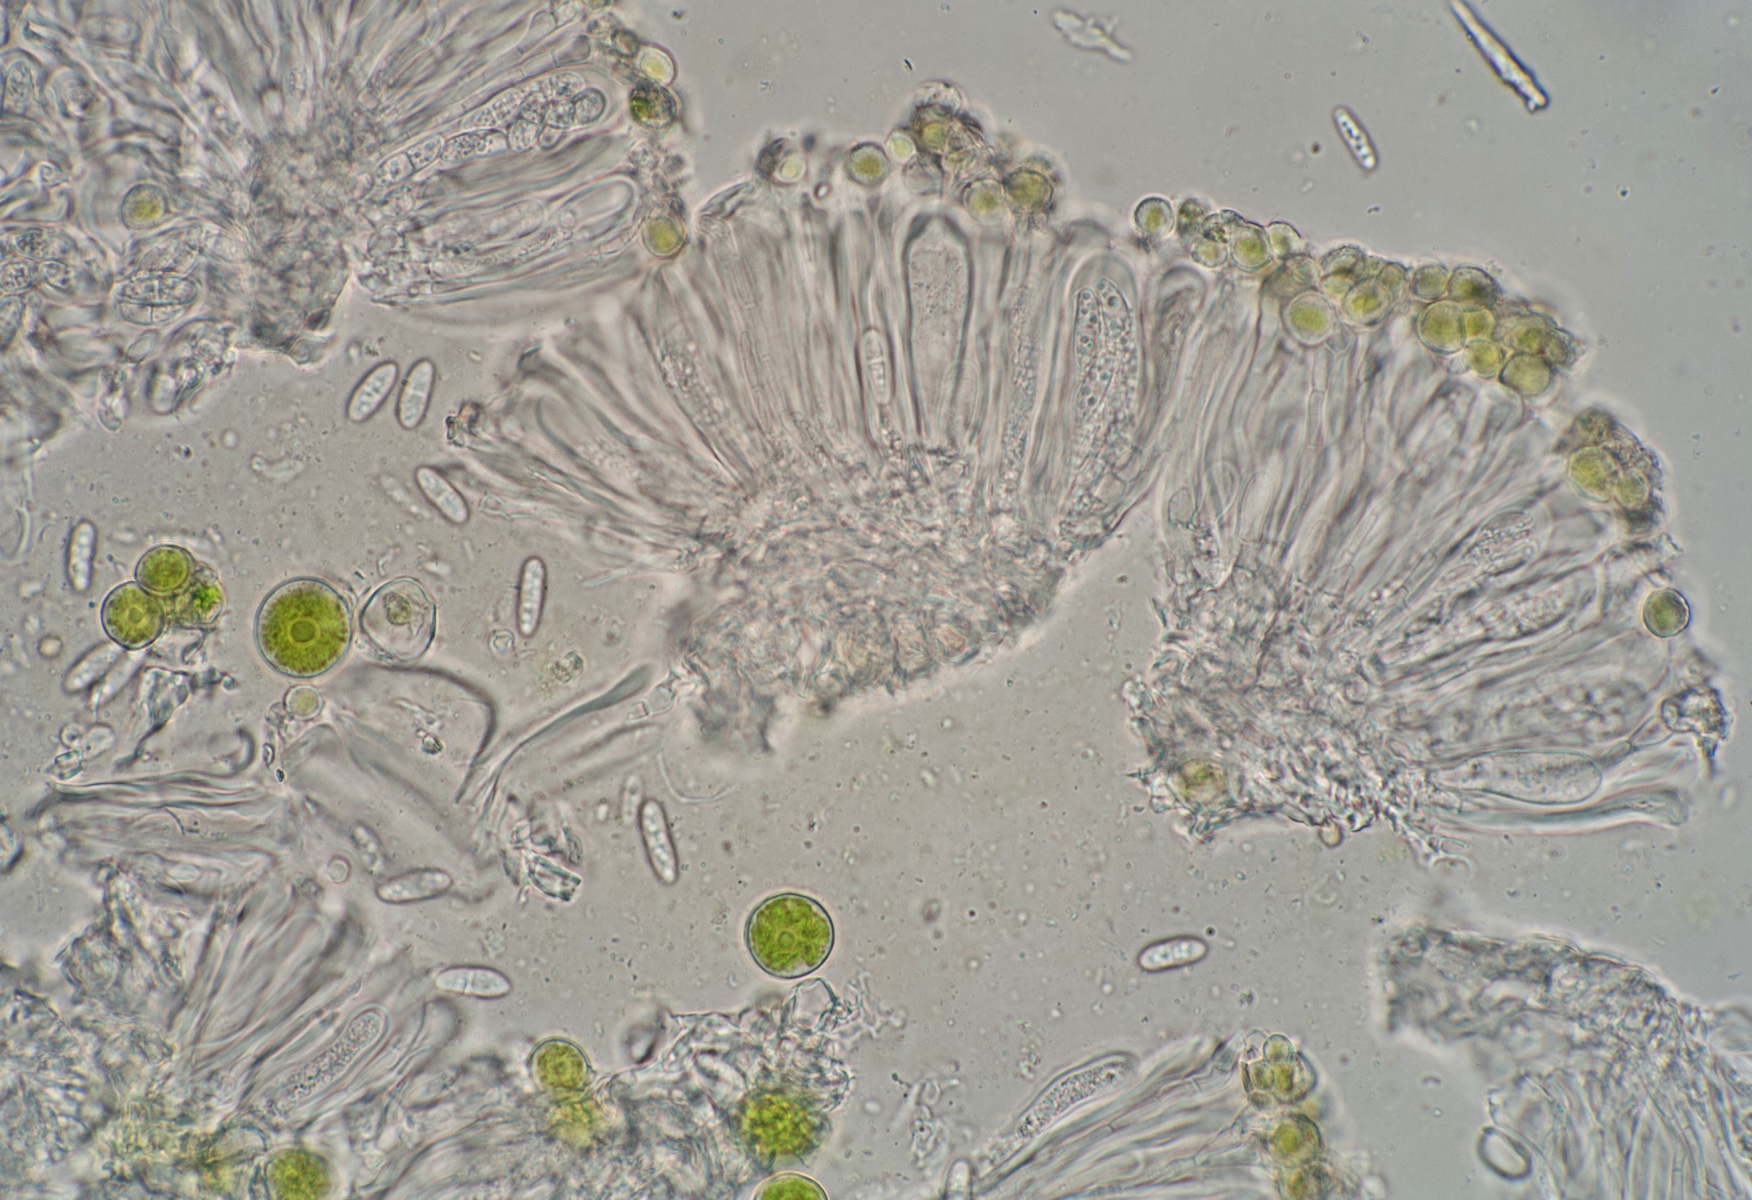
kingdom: Fungi
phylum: Ascomycota
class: Lecanoromycetes
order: Lecanorales
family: Ramalinaceae
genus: Lecania
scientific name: Lecania cyrtella
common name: hylde-lecania
